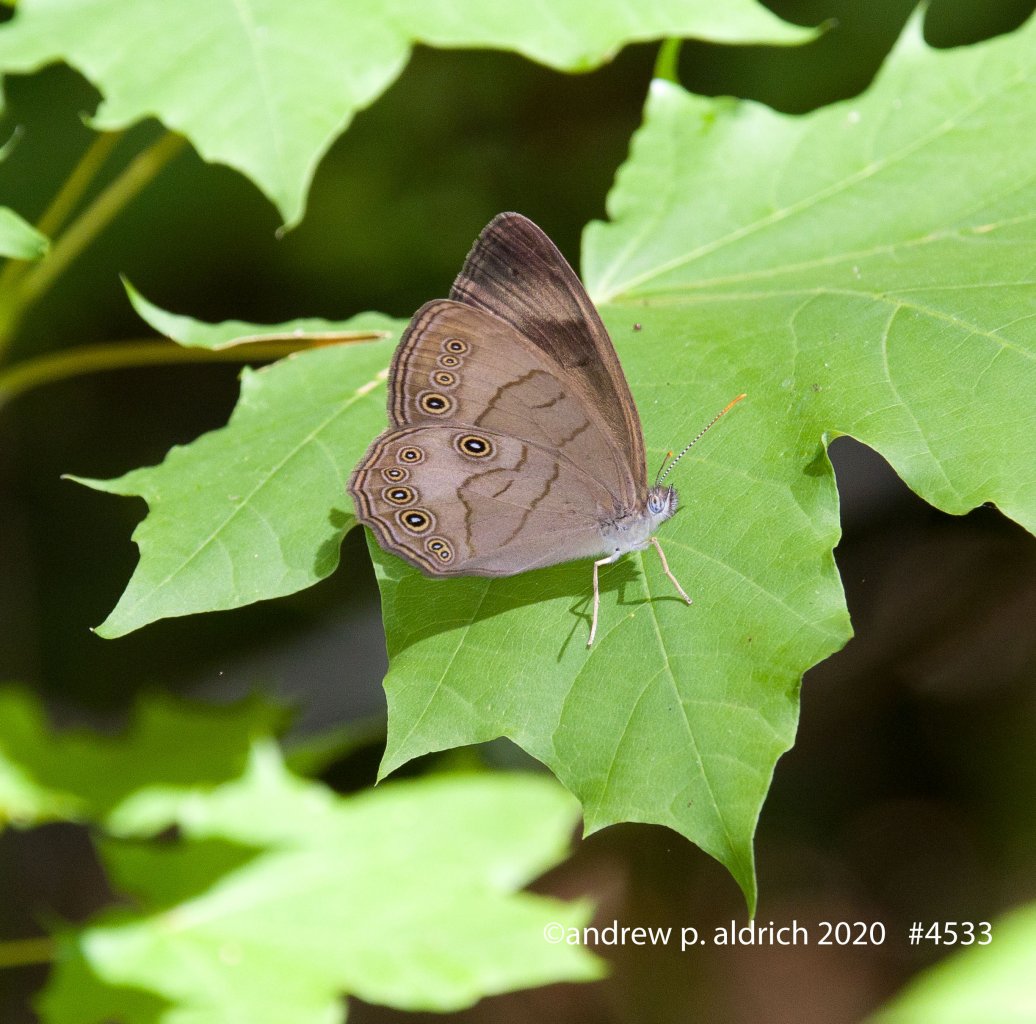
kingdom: Animalia
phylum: Arthropoda
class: Insecta
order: Lepidoptera
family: Nymphalidae
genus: Lethe
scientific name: Lethe eurydice
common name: Appalachian Eyed Brown
